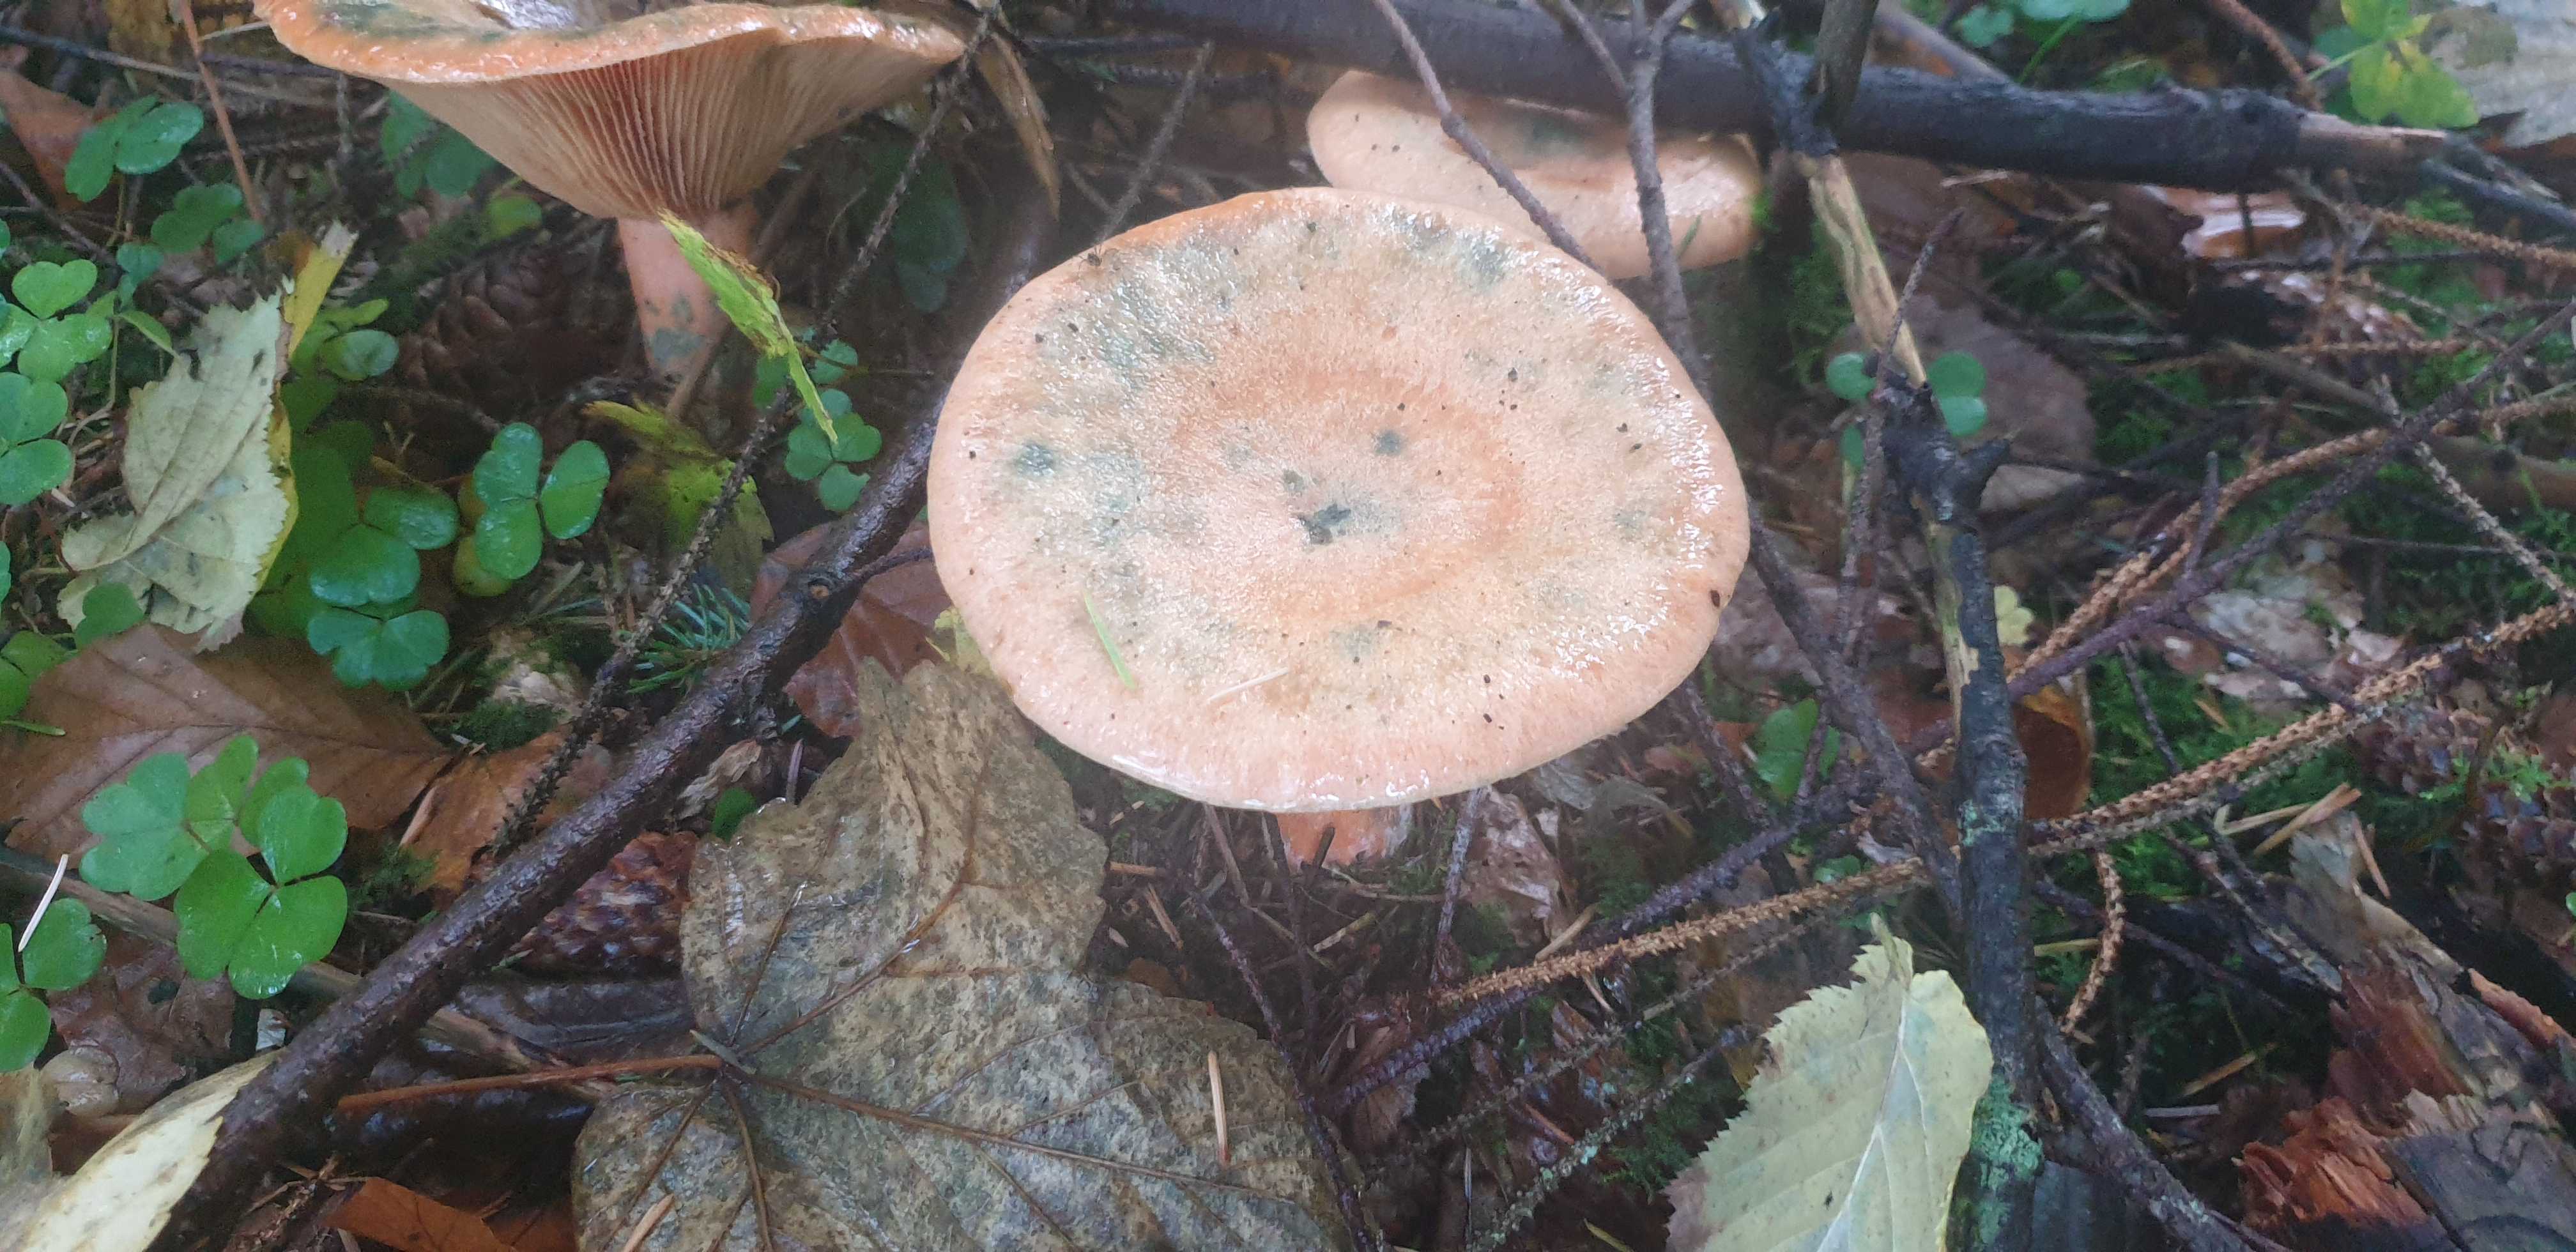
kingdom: Fungi
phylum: Basidiomycota
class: Agaricomycetes
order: Russulales
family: Russulaceae
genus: Lactarius
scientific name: Lactarius deterrimus
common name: gran-mælkehat
